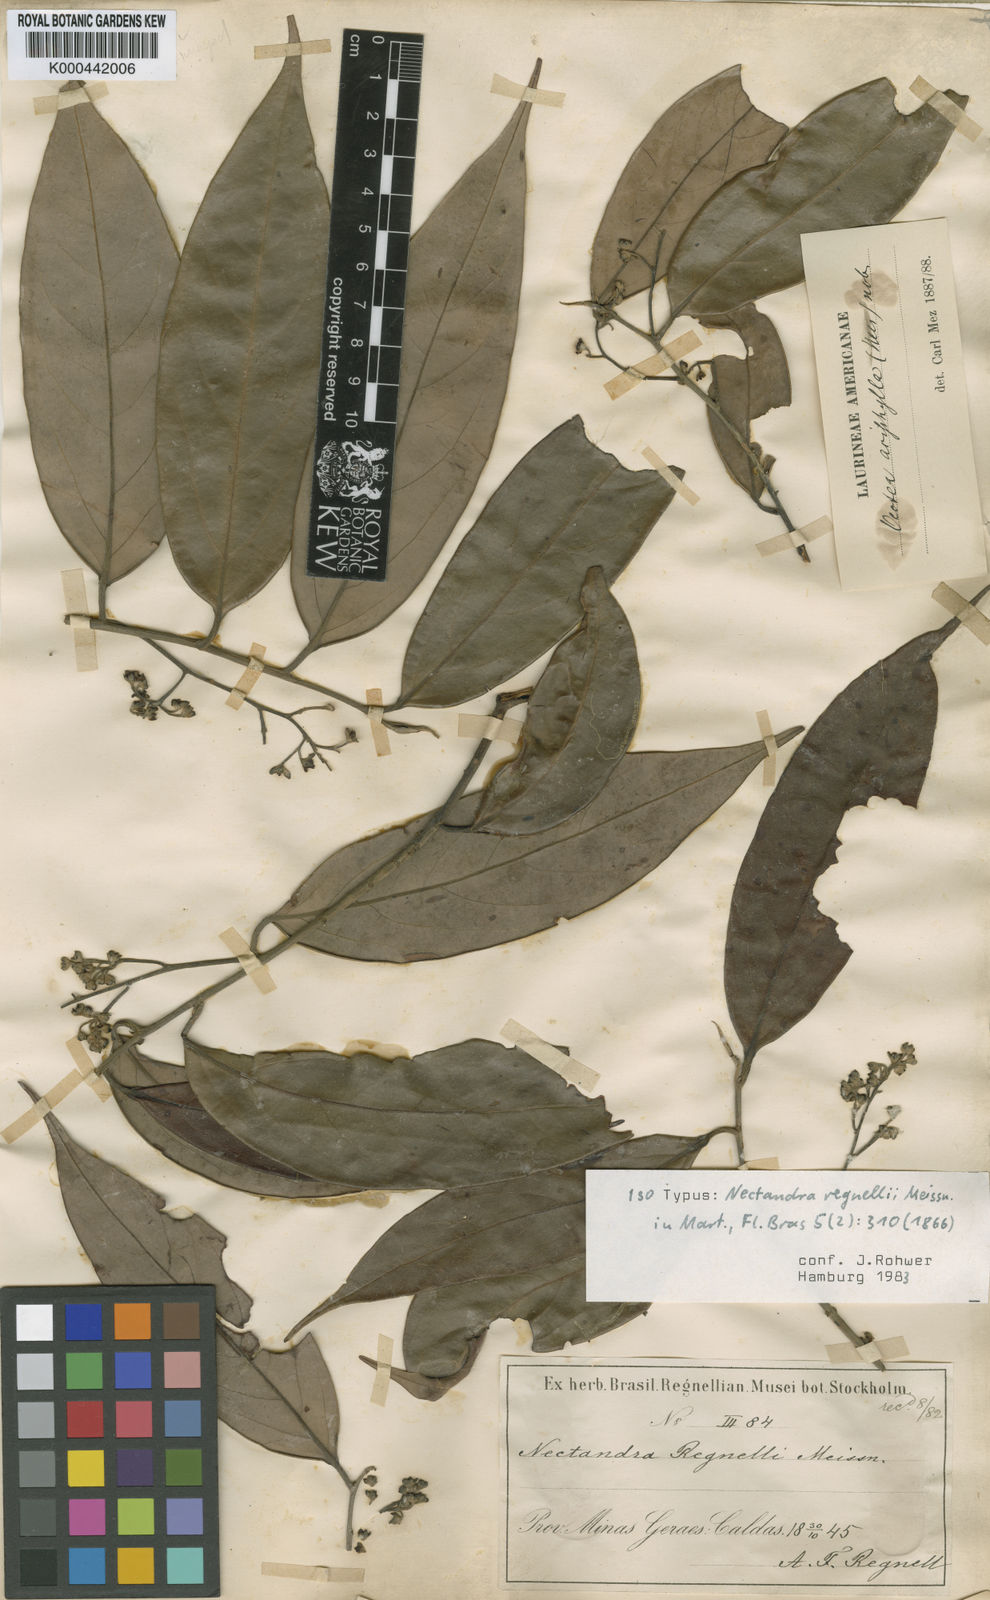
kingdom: Plantae
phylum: Tracheophyta
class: Magnoliopsida
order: Laurales
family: Lauraceae
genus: Ocotea
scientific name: Ocotea aciphylla
